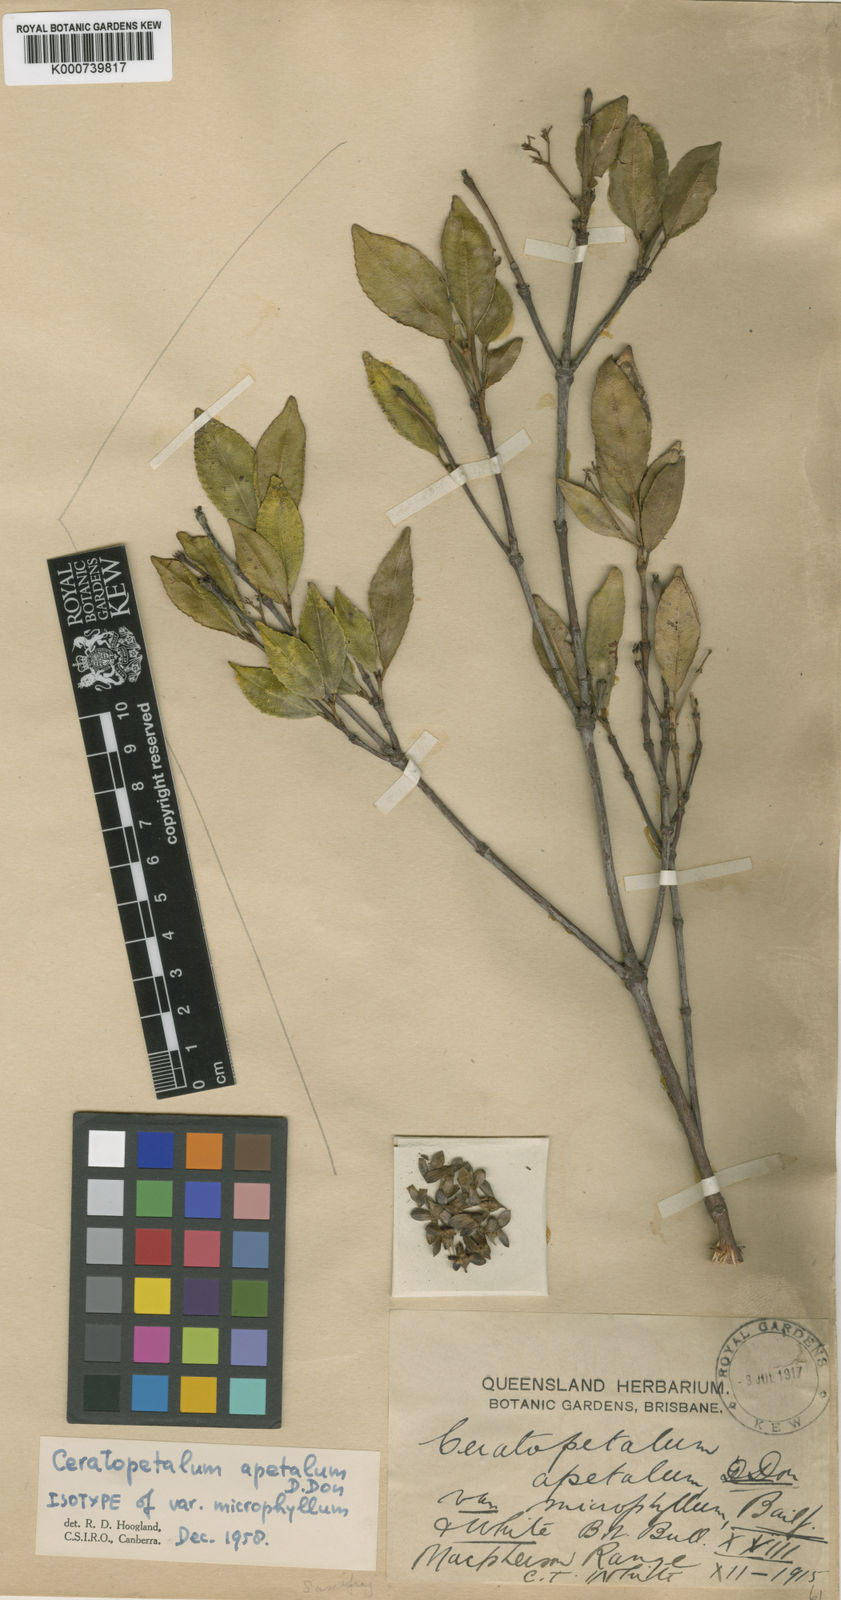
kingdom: Plantae
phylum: Tracheophyta
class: Magnoliopsida
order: Oxalidales
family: Cunoniaceae
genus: Ceratopetalum
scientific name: Ceratopetalum apetalum
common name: Scented satinwood
